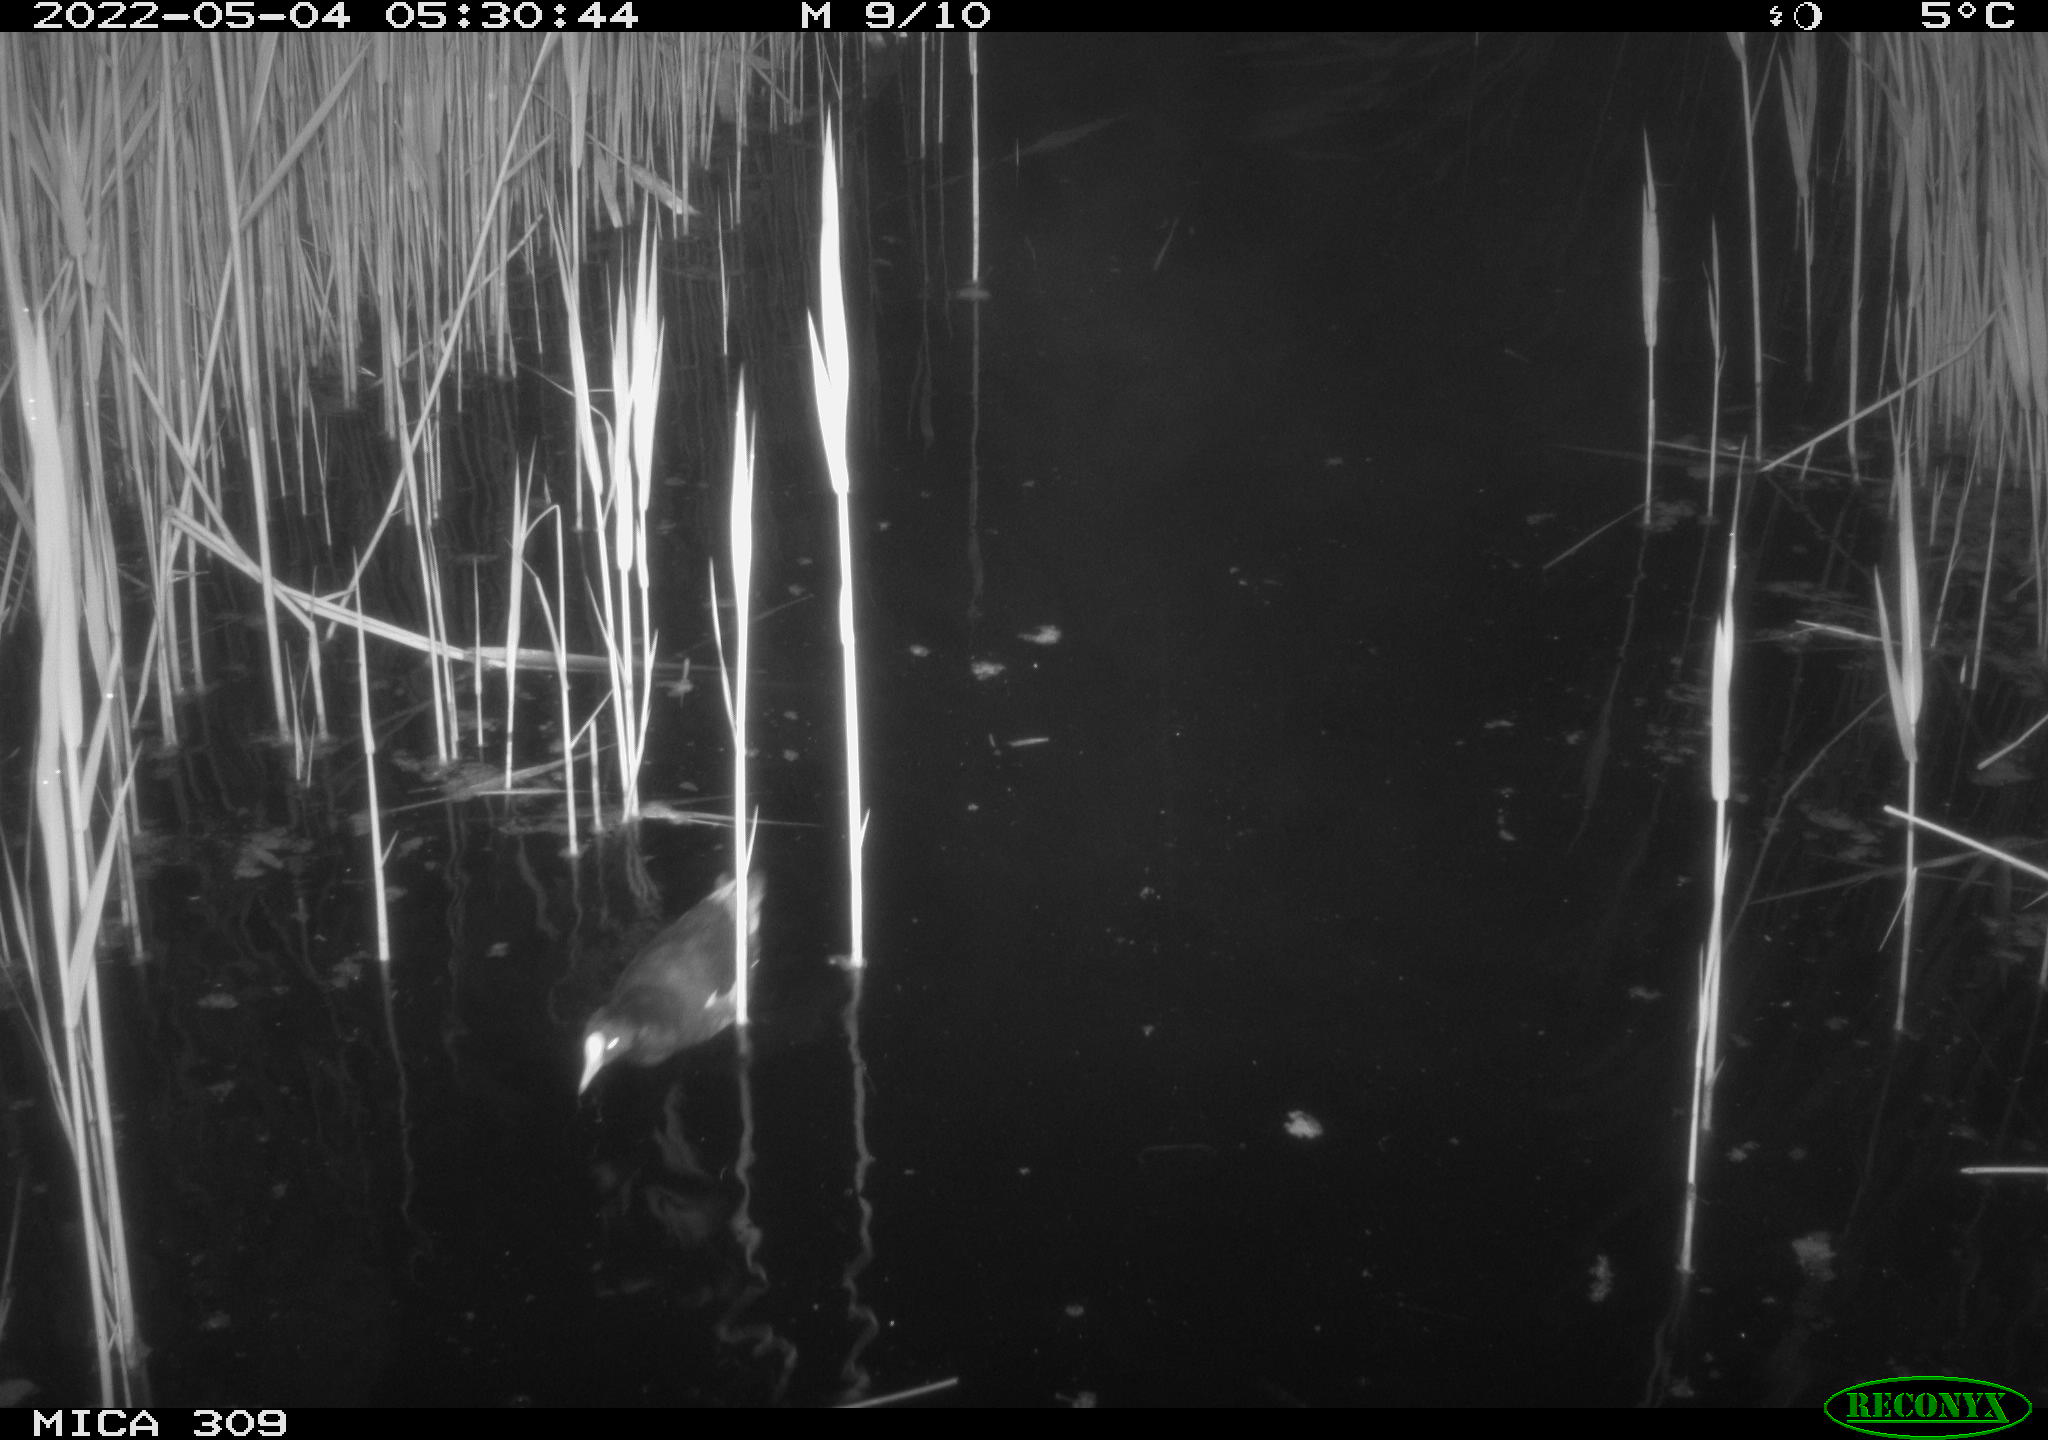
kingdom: Animalia
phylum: Chordata
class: Aves
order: Gruiformes
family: Rallidae
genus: Gallinula
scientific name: Gallinula chloropus
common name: Common moorhen
